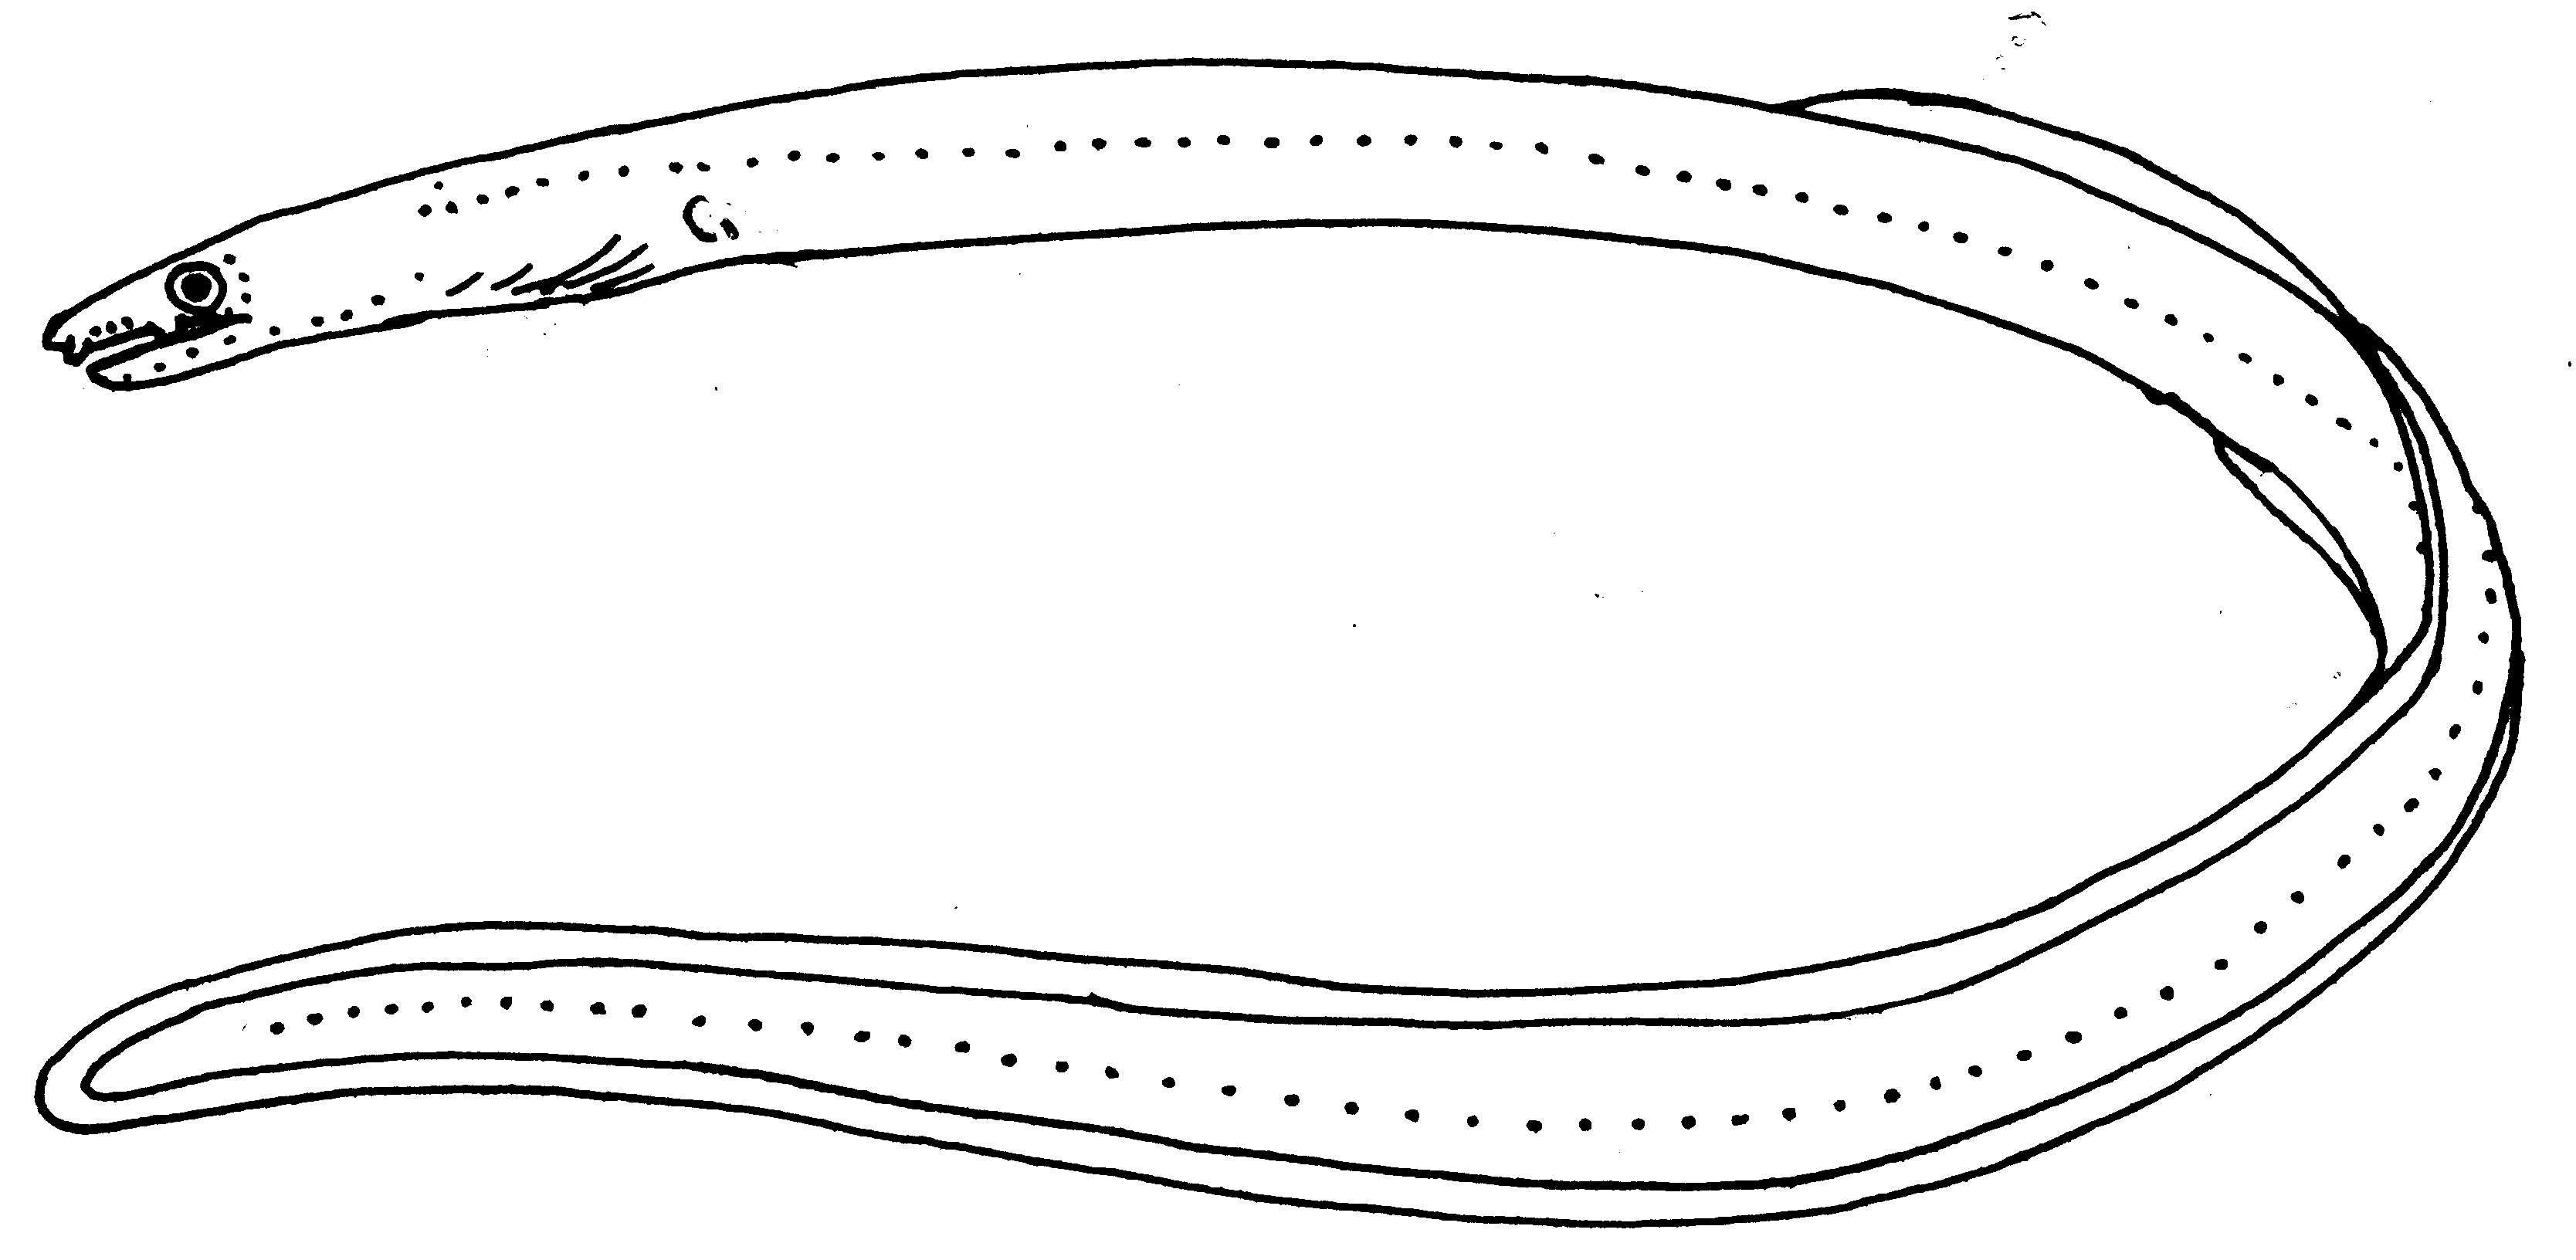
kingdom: Animalia
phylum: Chordata
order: Anguilliformes
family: Ophichthidae
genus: Scolecenchelys
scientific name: Scolecenchelys
